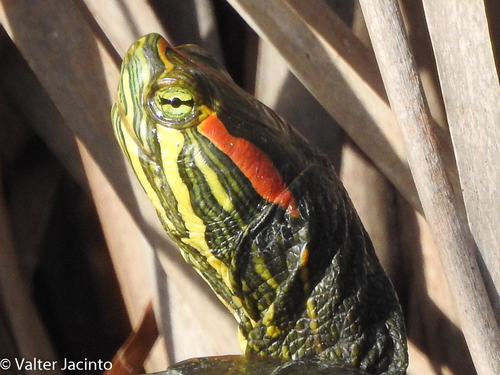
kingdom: Animalia
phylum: Chordata
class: Testudines
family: Emydidae
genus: Trachemys
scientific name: Trachemys scripta
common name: Slider
